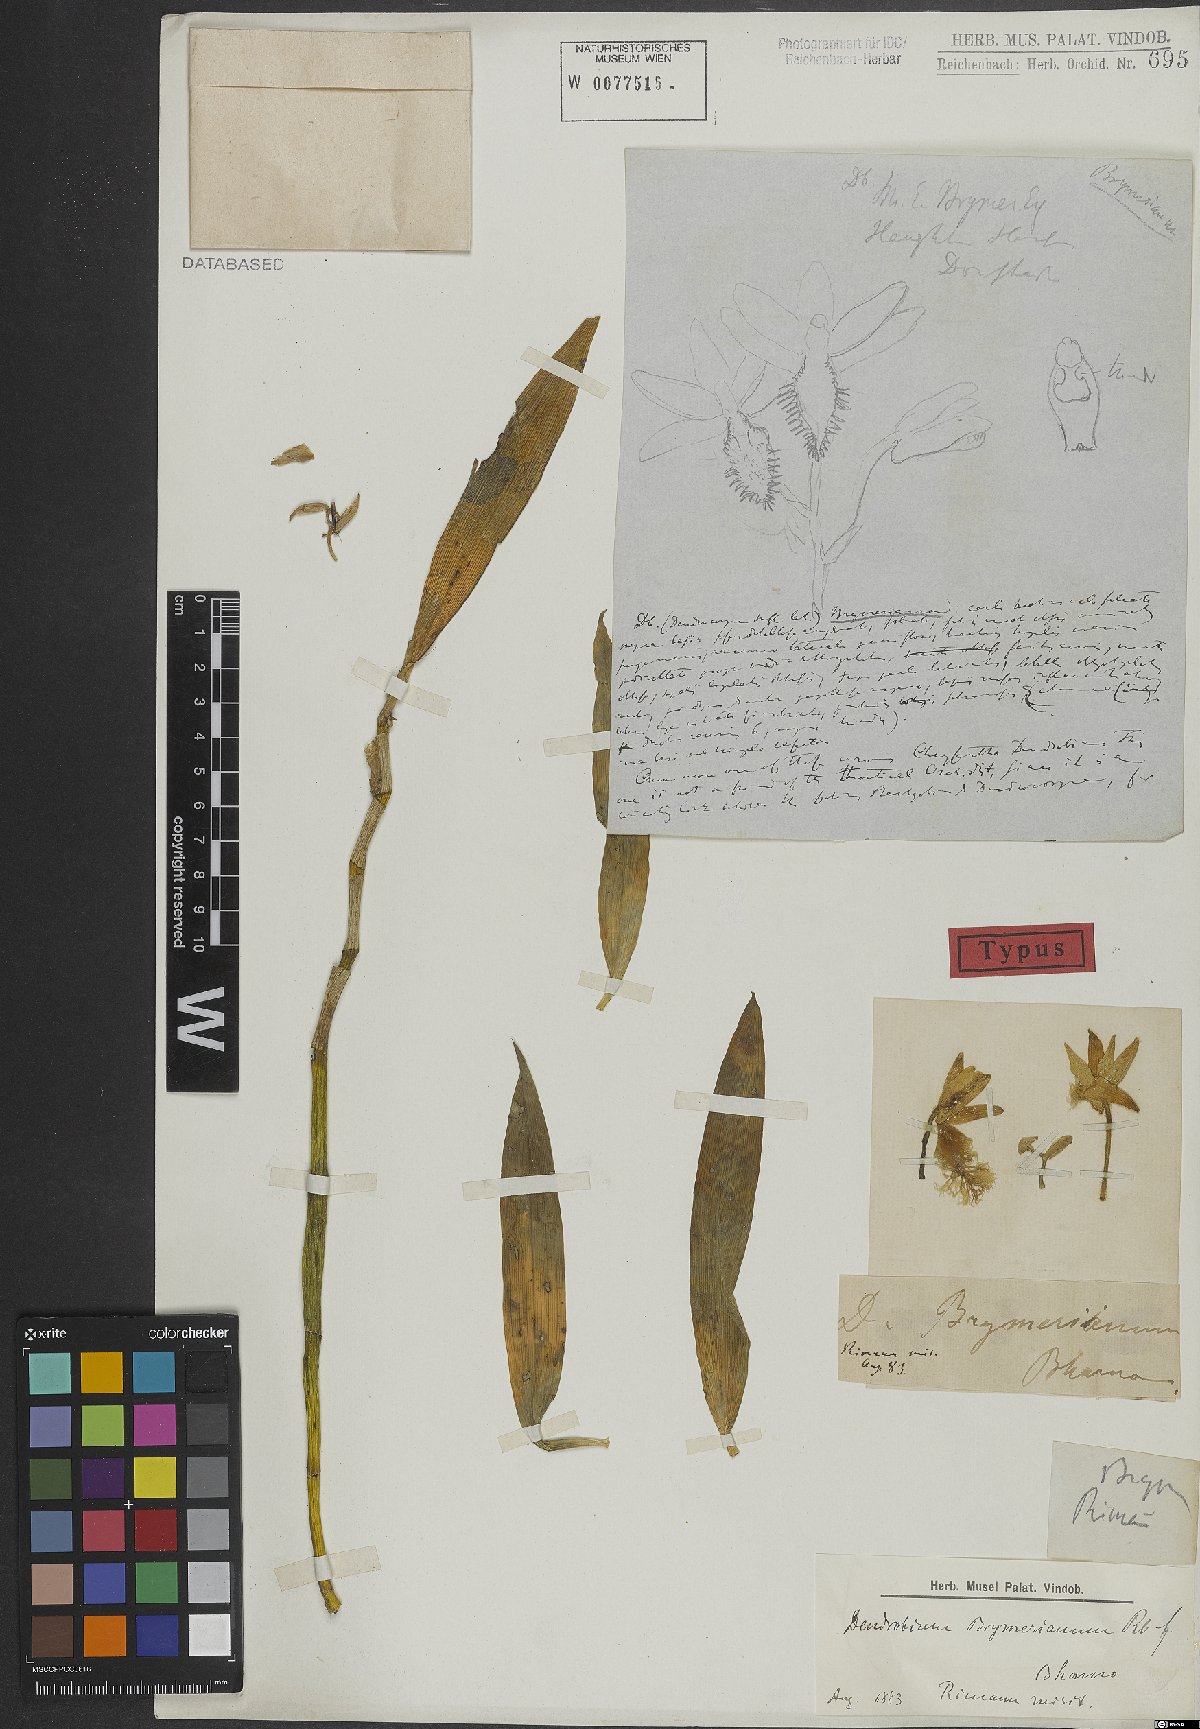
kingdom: Plantae
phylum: Tracheophyta
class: Liliopsida
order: Asparagales
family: Orchidaceae
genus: Dendrobium
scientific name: Dendrobium brymerianum
